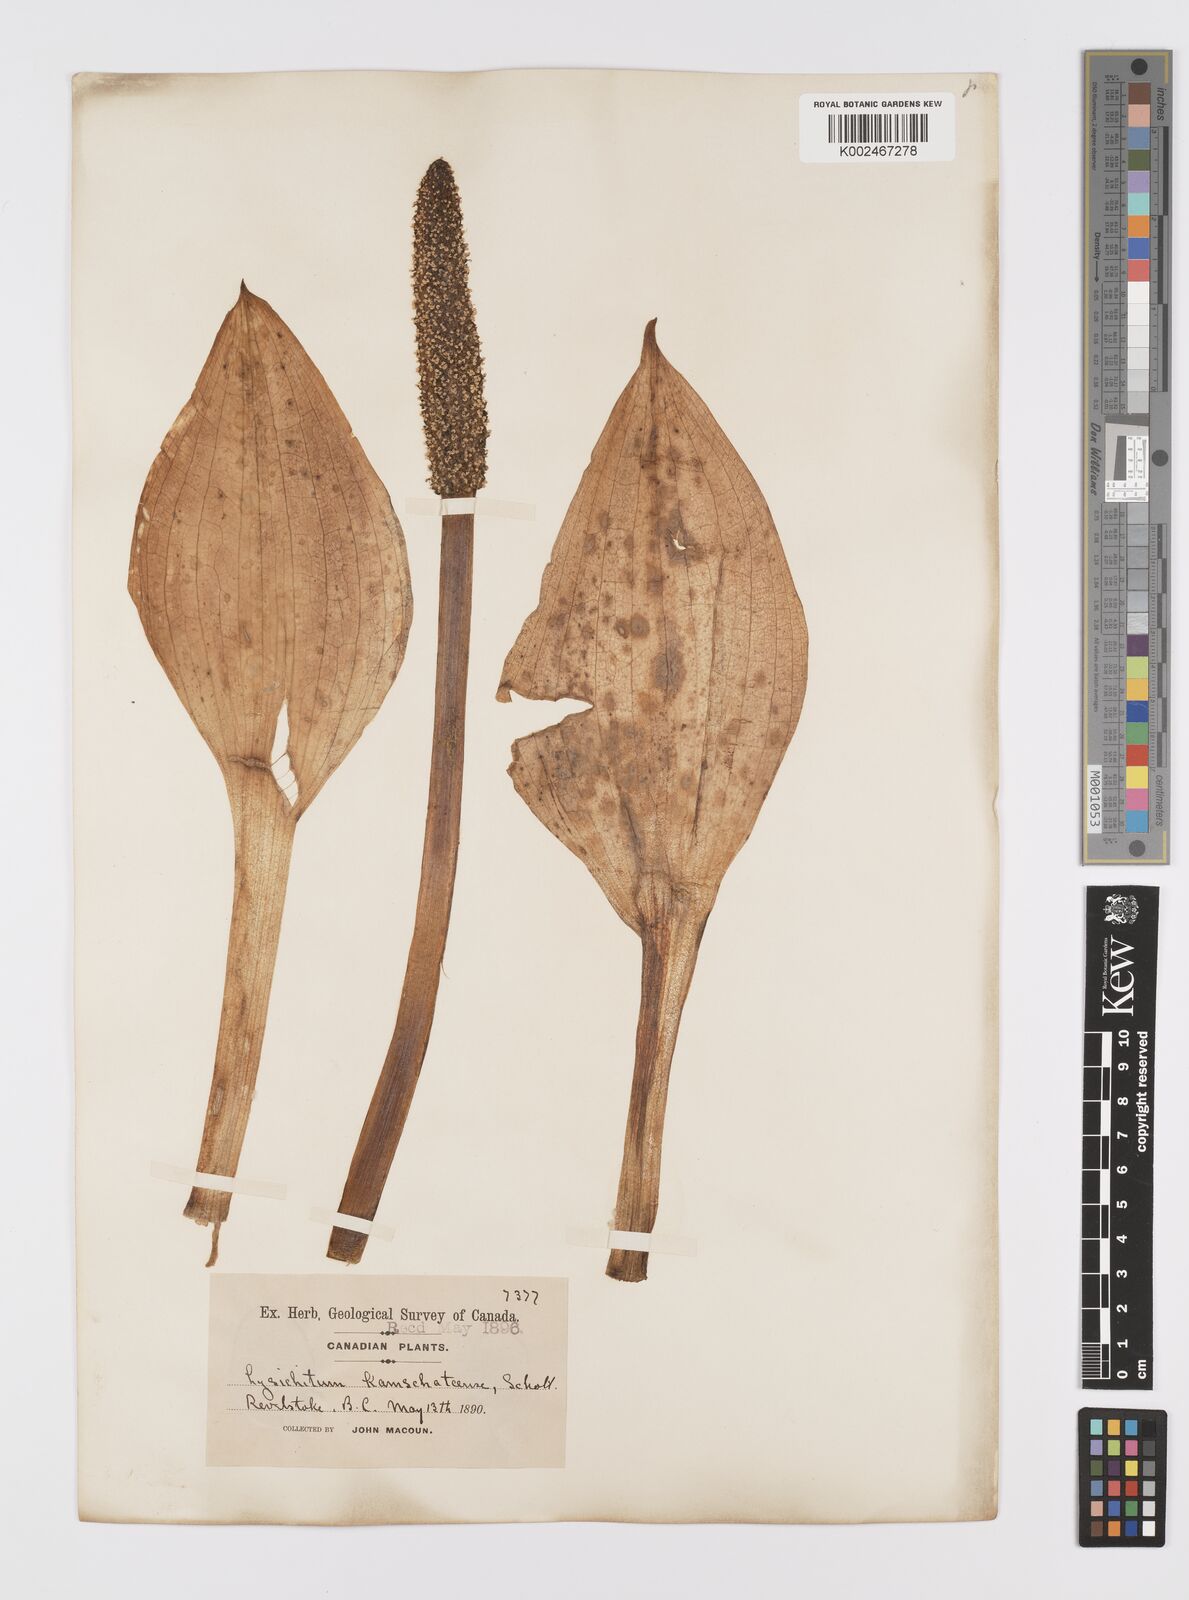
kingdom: Plantae
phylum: Tracheophyta
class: Liliopsida
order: Alismatales
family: Araceae
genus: Lysichiton
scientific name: Lysichiton americanus
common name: American skunk cabbage
